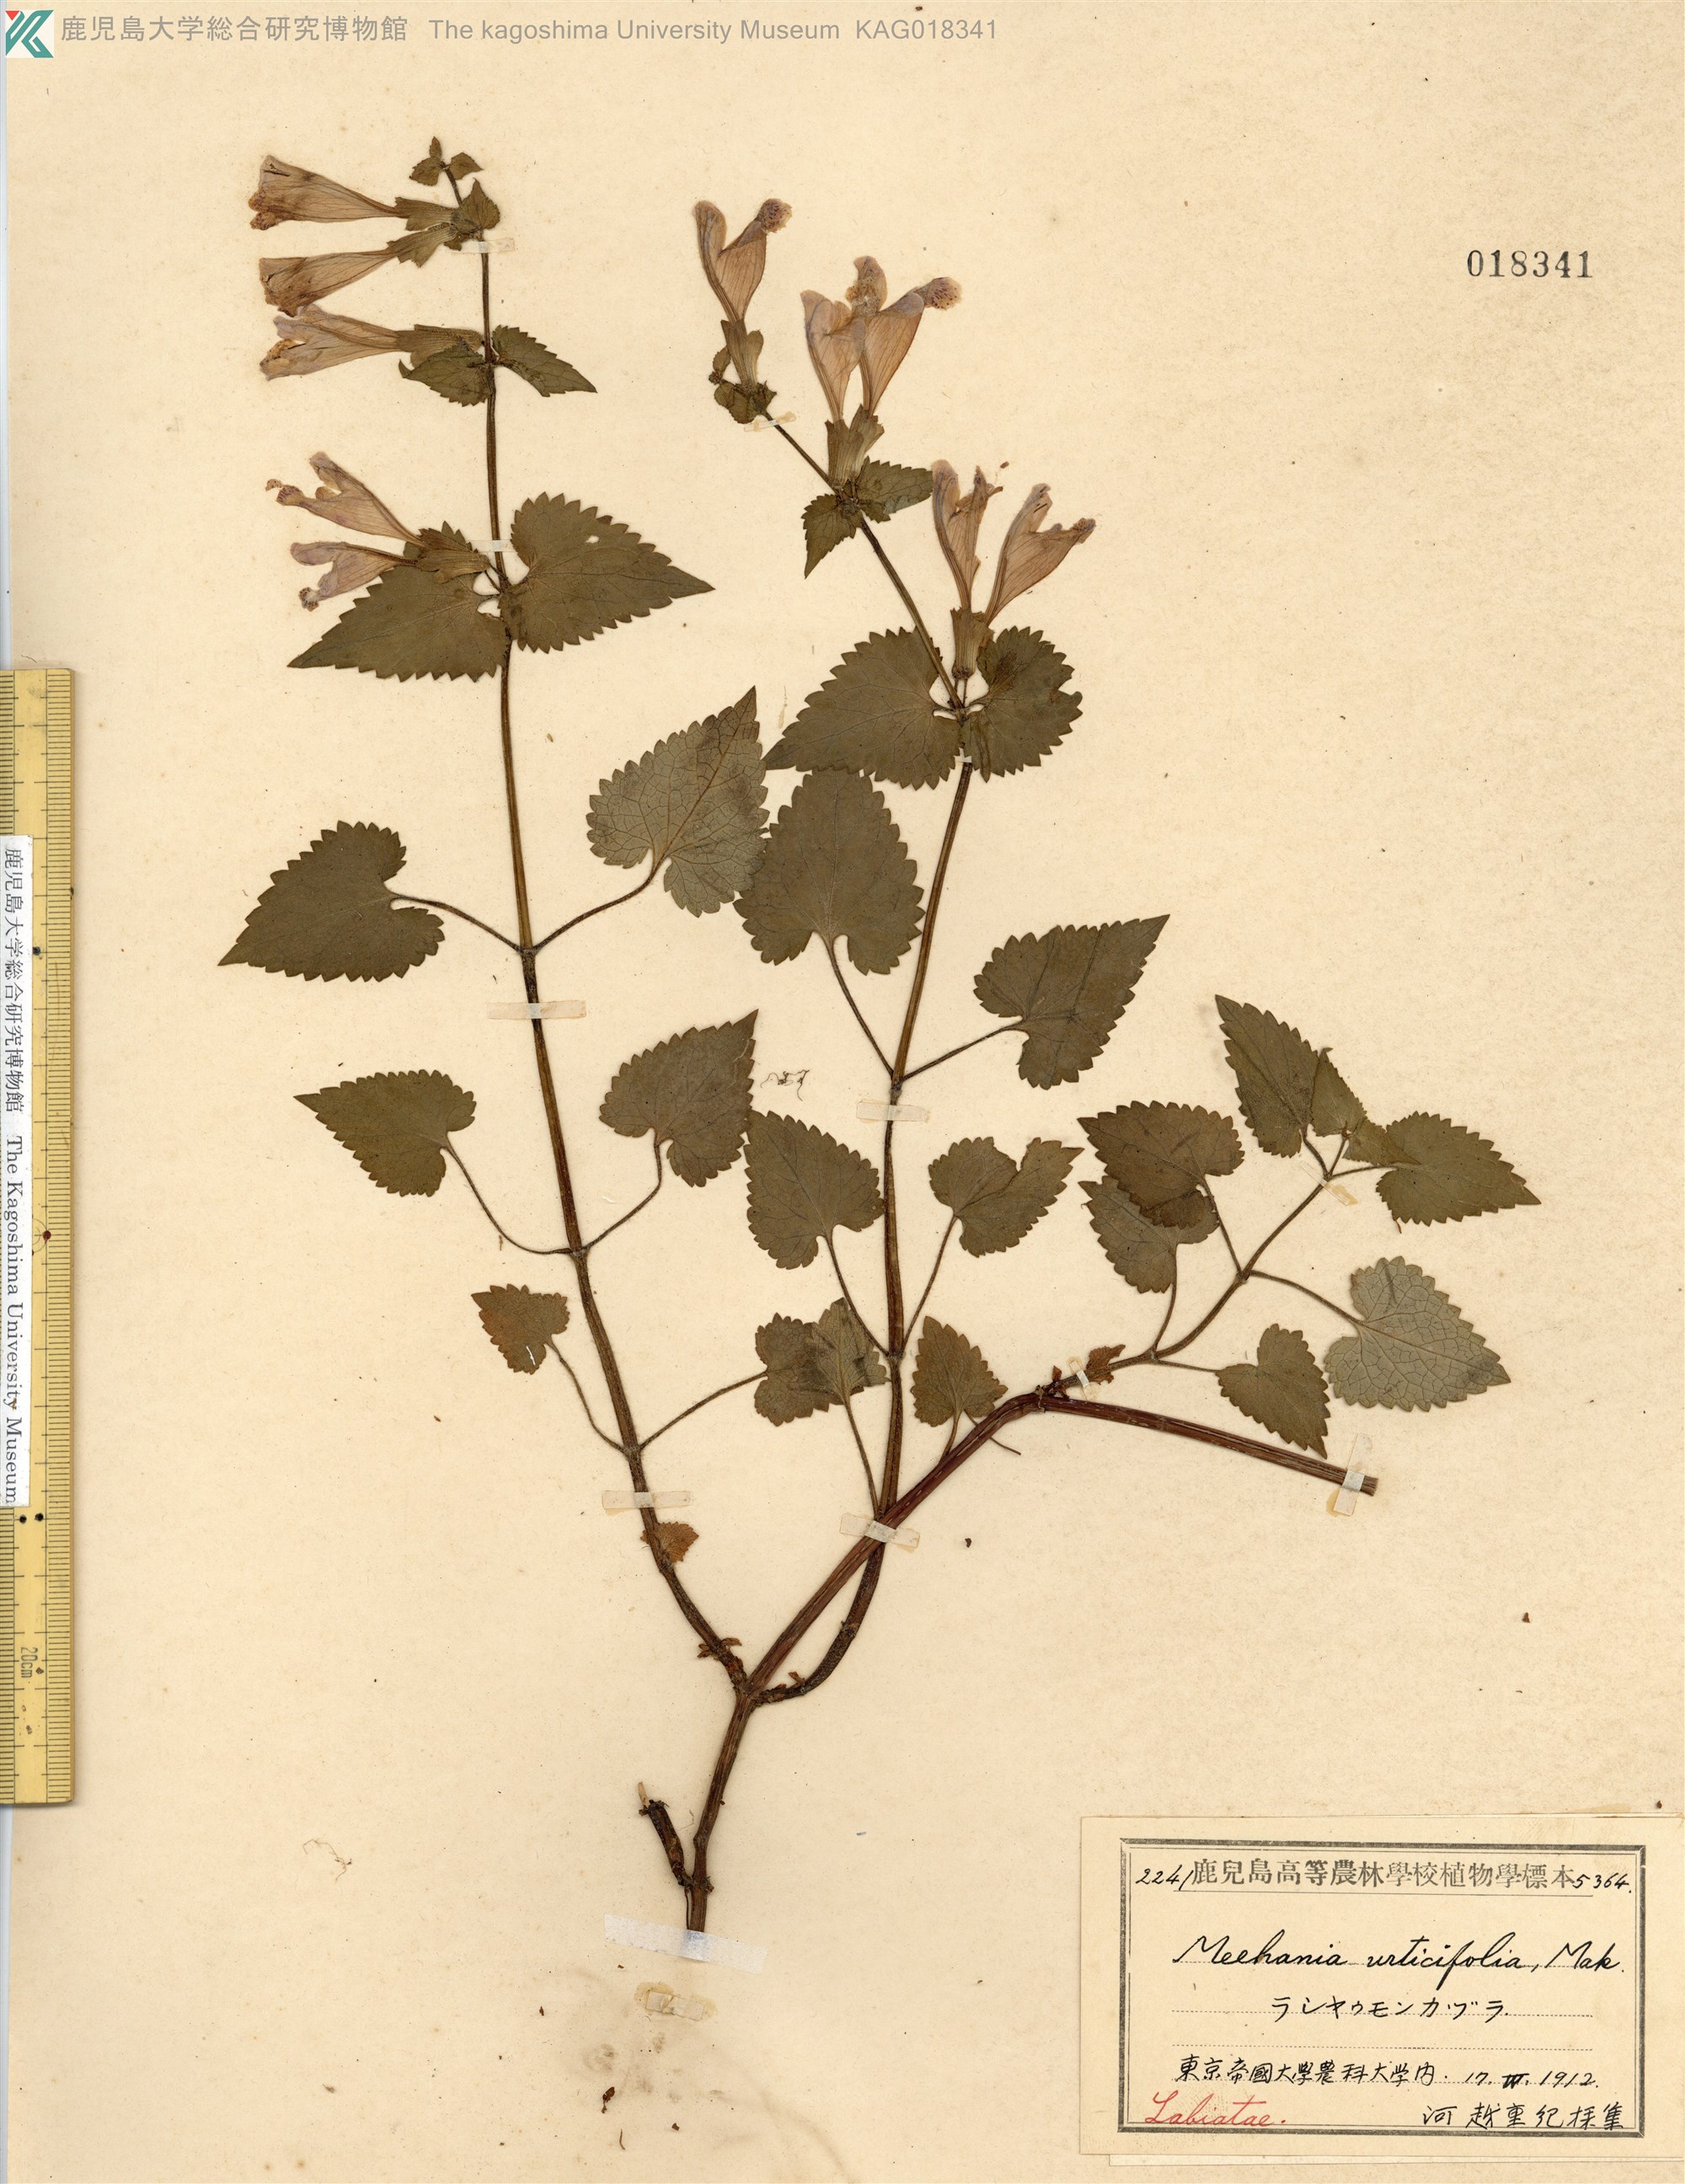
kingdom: Plantae
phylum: Tracheophyta
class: Magnoliopsida
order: Lamiales
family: Lamiaceae
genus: Meehania
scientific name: Meehania urticifolia
